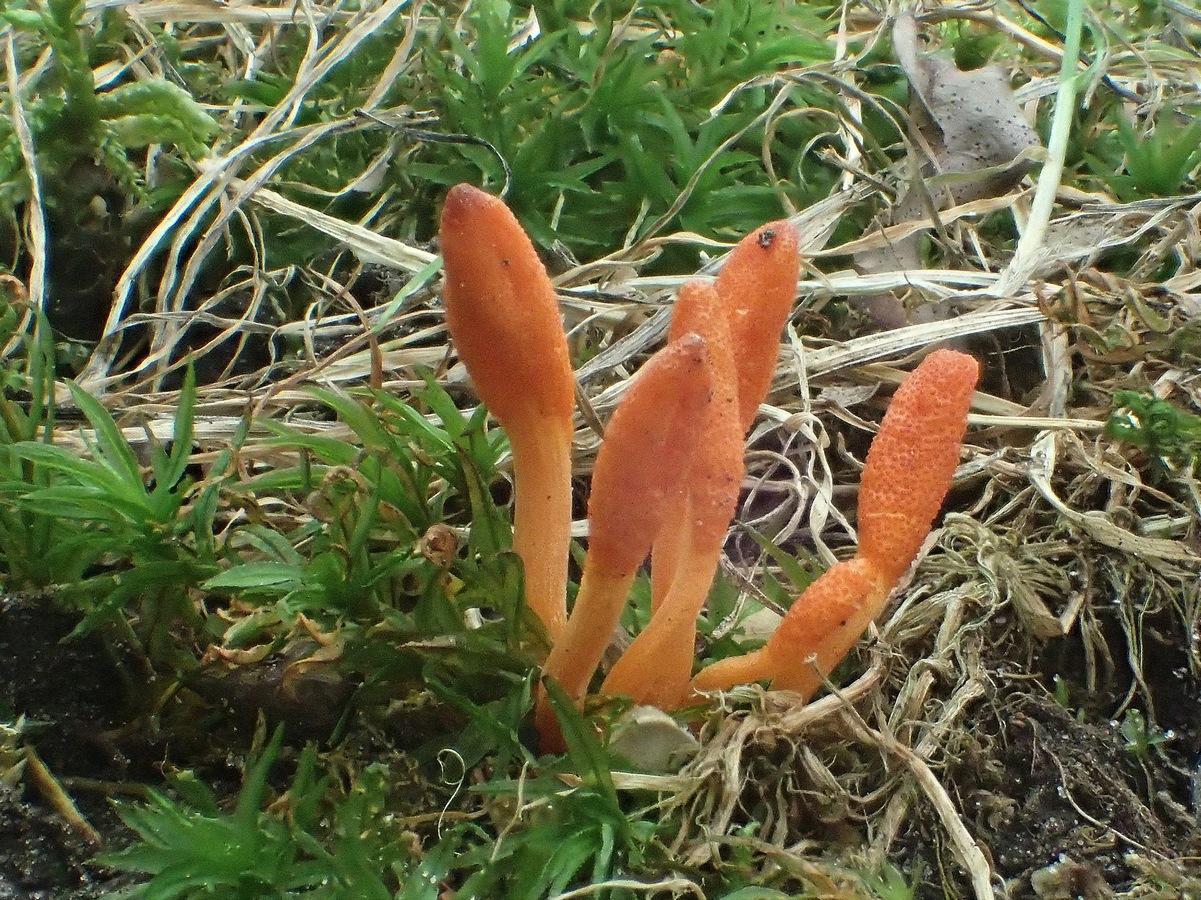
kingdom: Fungi
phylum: Ascomycota
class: Sordariomycetes
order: Hypocreales
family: Cordycipitaceae
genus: Cordyceps
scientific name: Cordyceps militaris
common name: puppe-snyltekølle
